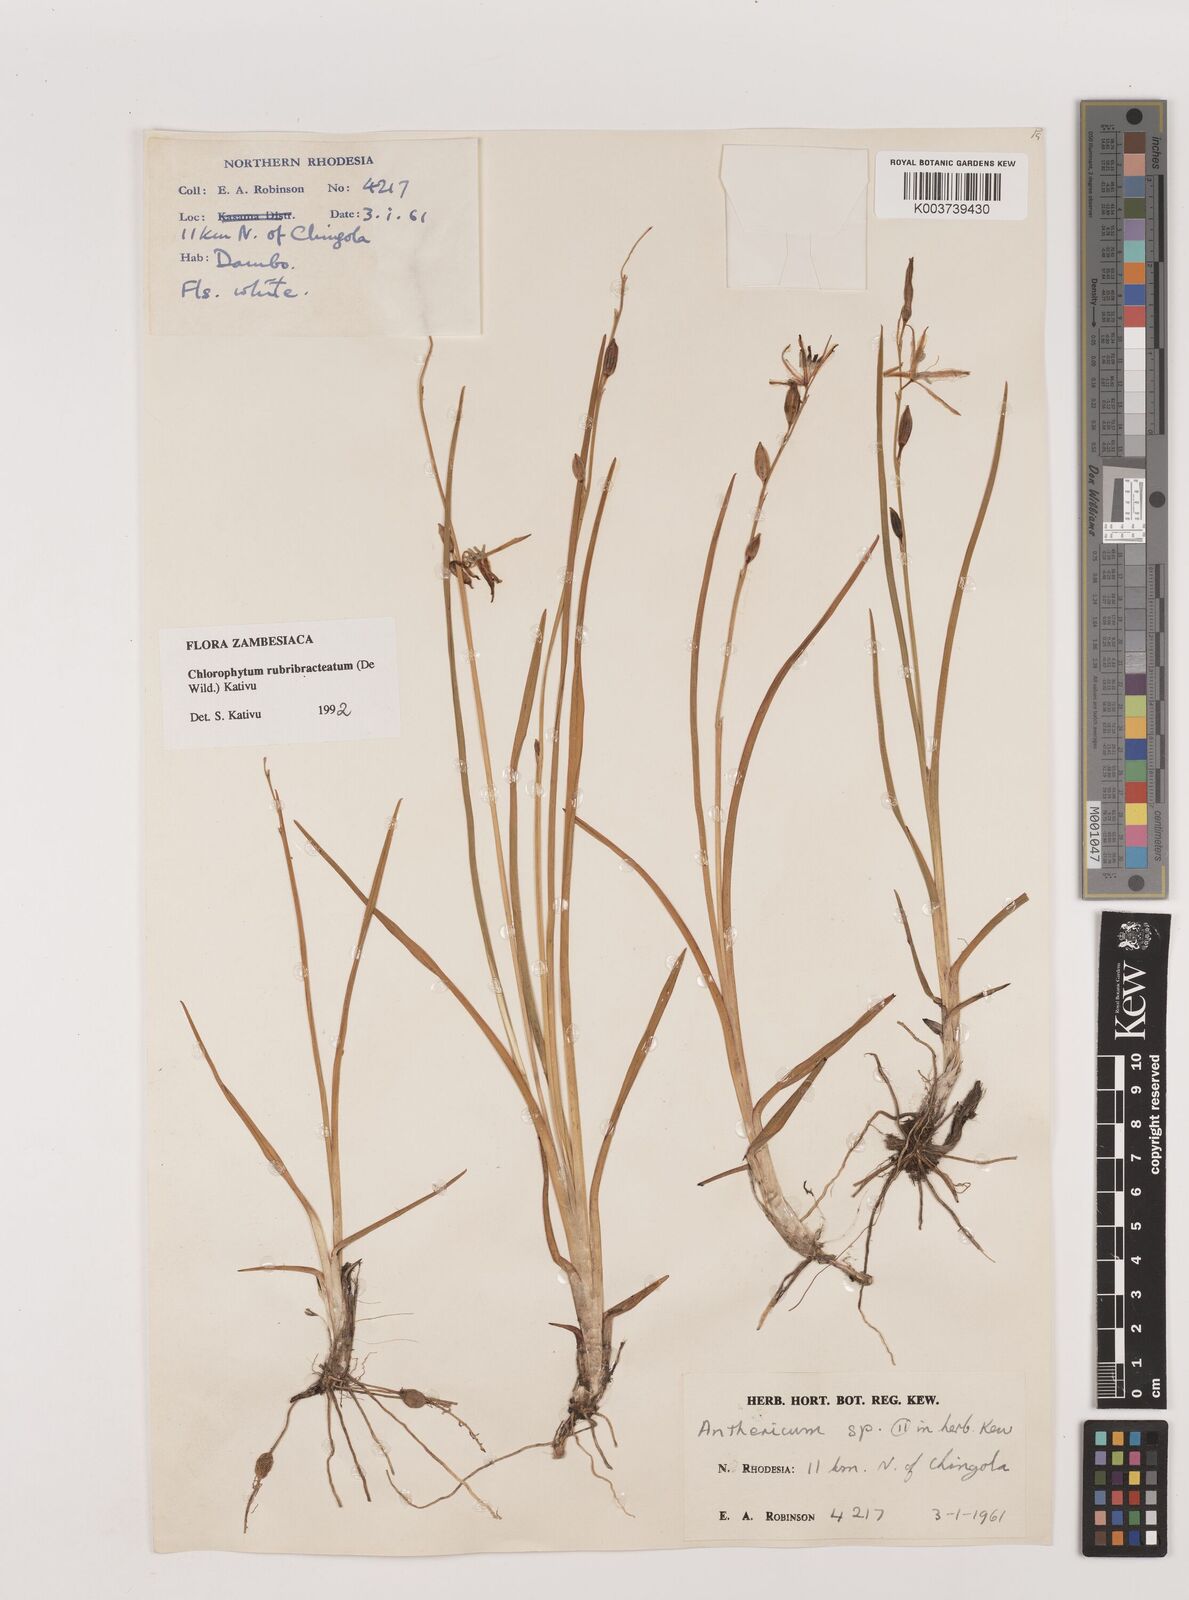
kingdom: Plantae
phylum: Tracheophyta
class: Liliopsida
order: Asparagales
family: Asparagaceae
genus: Chlorophytum
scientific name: Chlorophytum rubribracteatum
